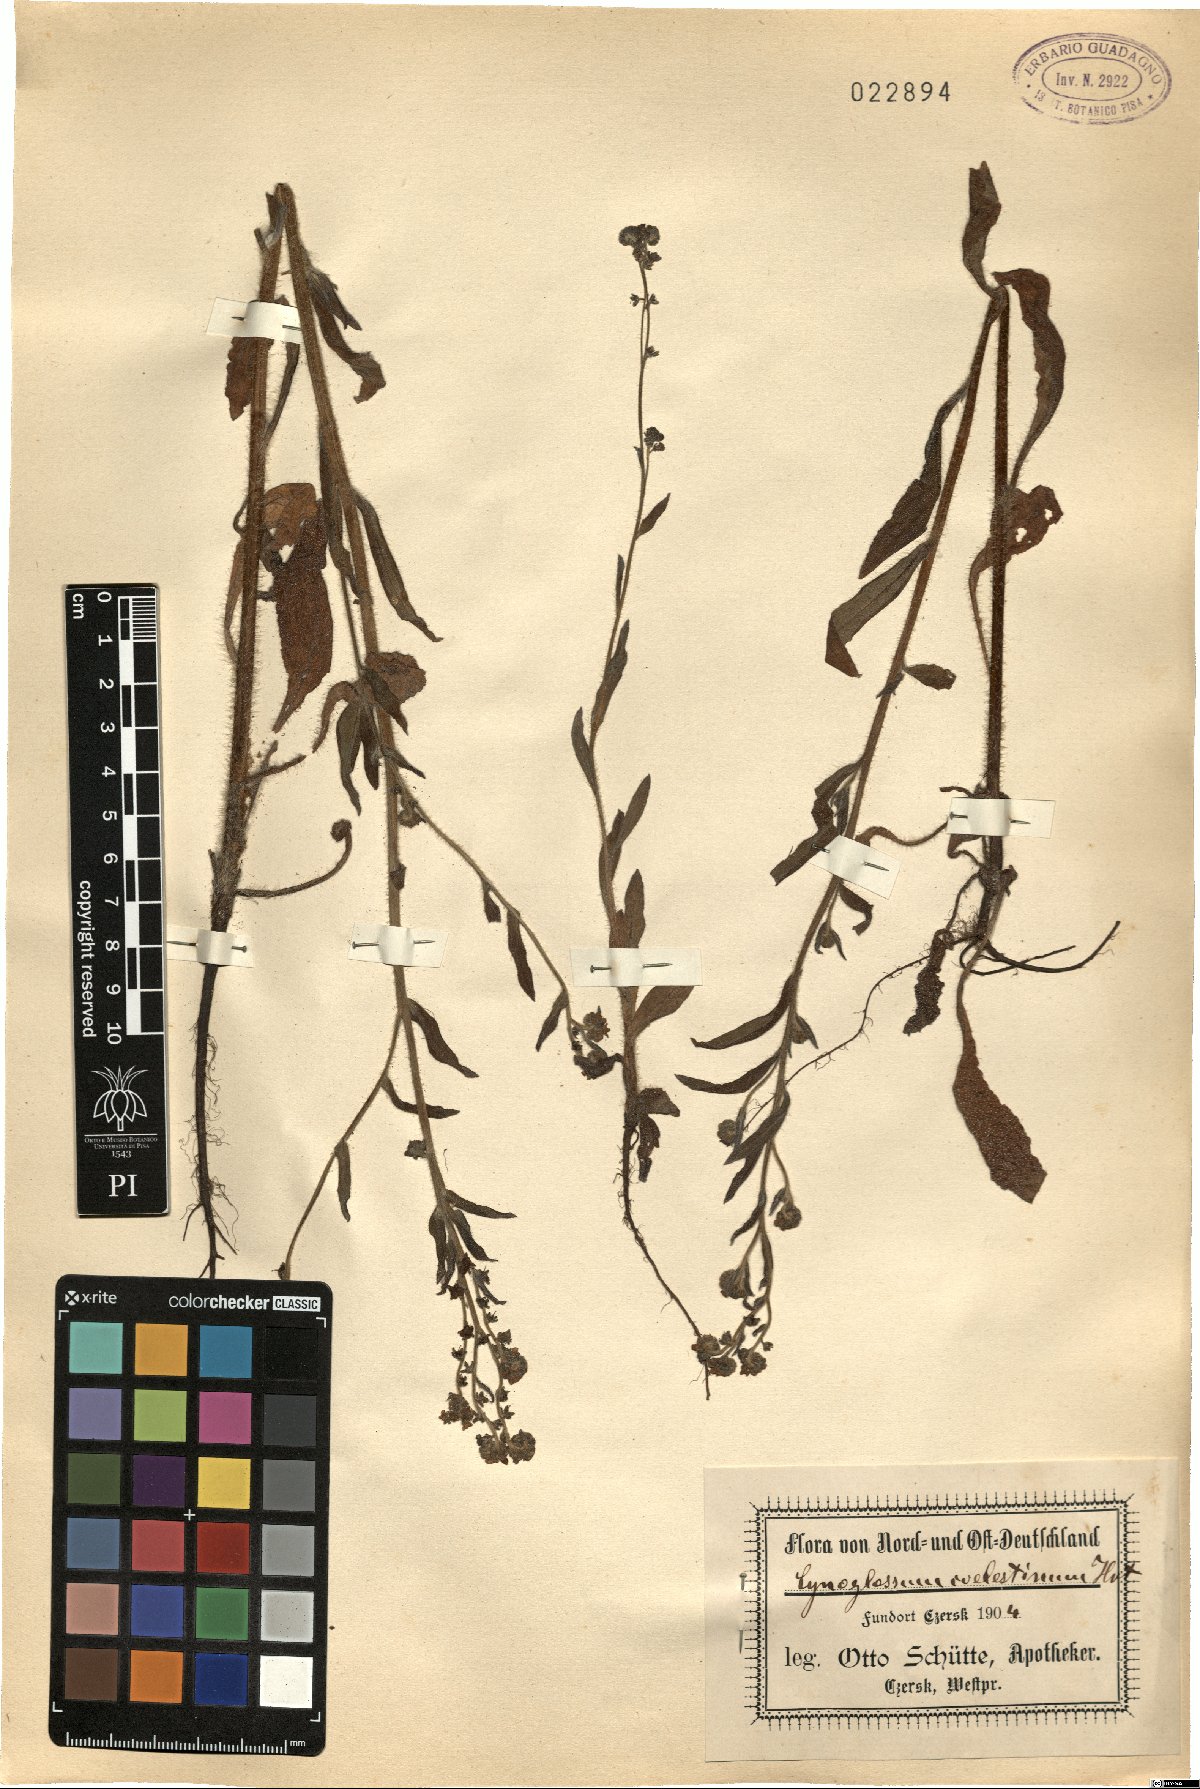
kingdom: Plantae
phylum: Tracheophyta
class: Magnoliopsida
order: Boraginales
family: Boraginaceae
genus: Paracaryum
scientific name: Paracaryum coelestinum
